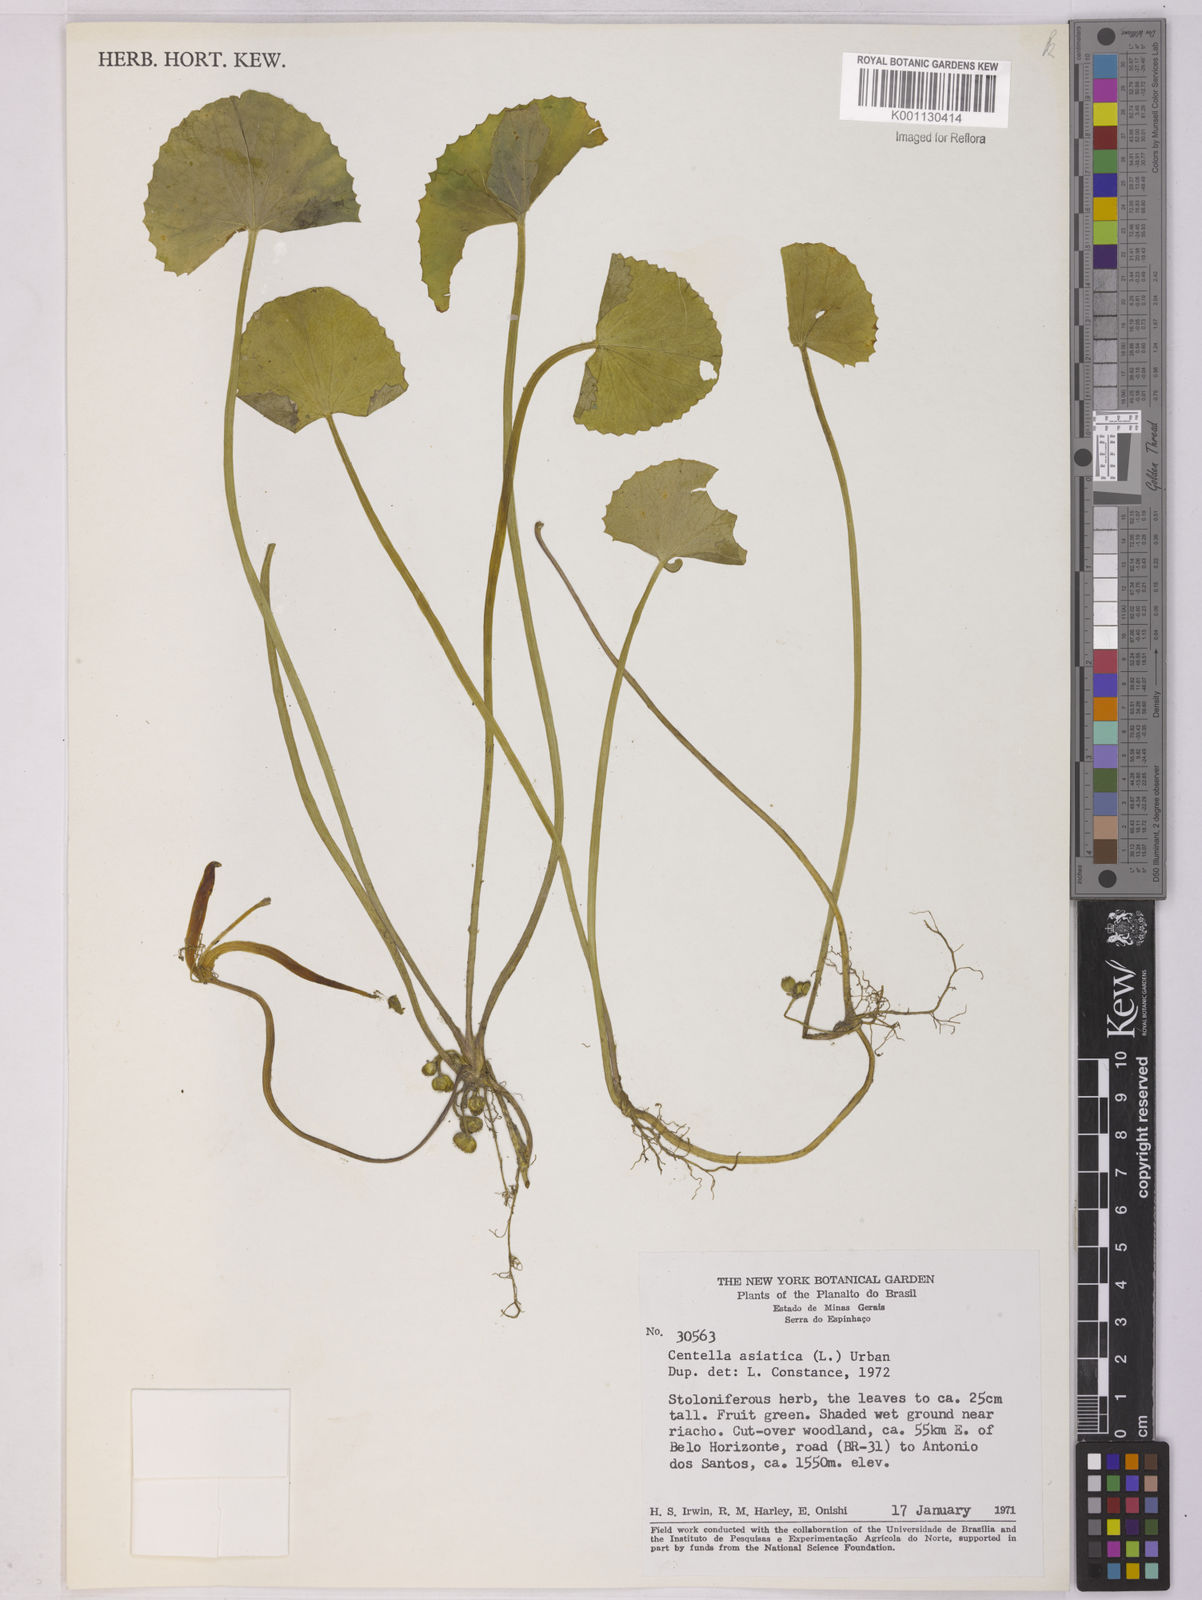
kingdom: Plantae
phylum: Tracheophyta
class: Magnoliopsida
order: Apiales
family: Apiaceae
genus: Centella
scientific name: Centella asiatica
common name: Spadeleaf
